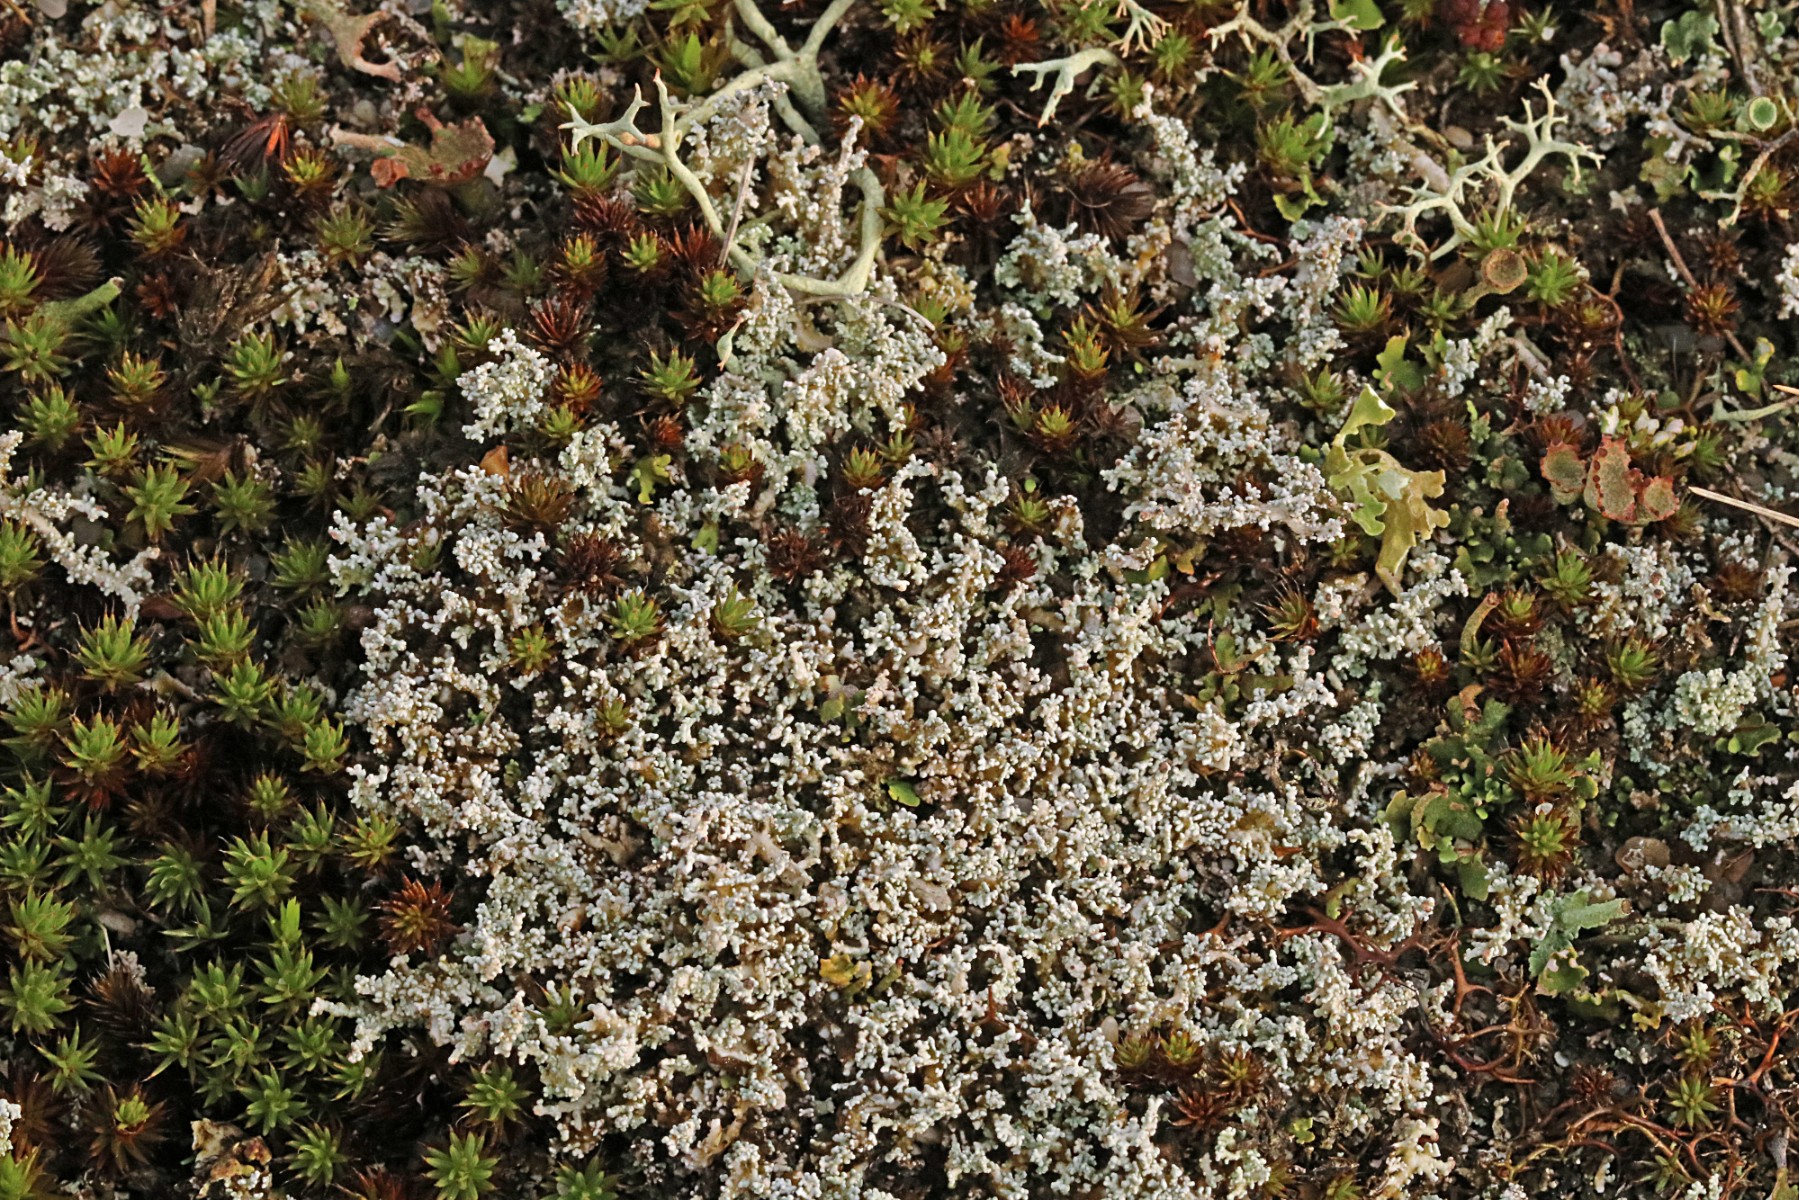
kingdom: Fungi
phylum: Ascomycota
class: Lecanoromycetes
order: Lecanorales
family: Stereocaulaceae
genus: Stereocaulon
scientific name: Stereocaulon saxatile
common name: klit-korallav
